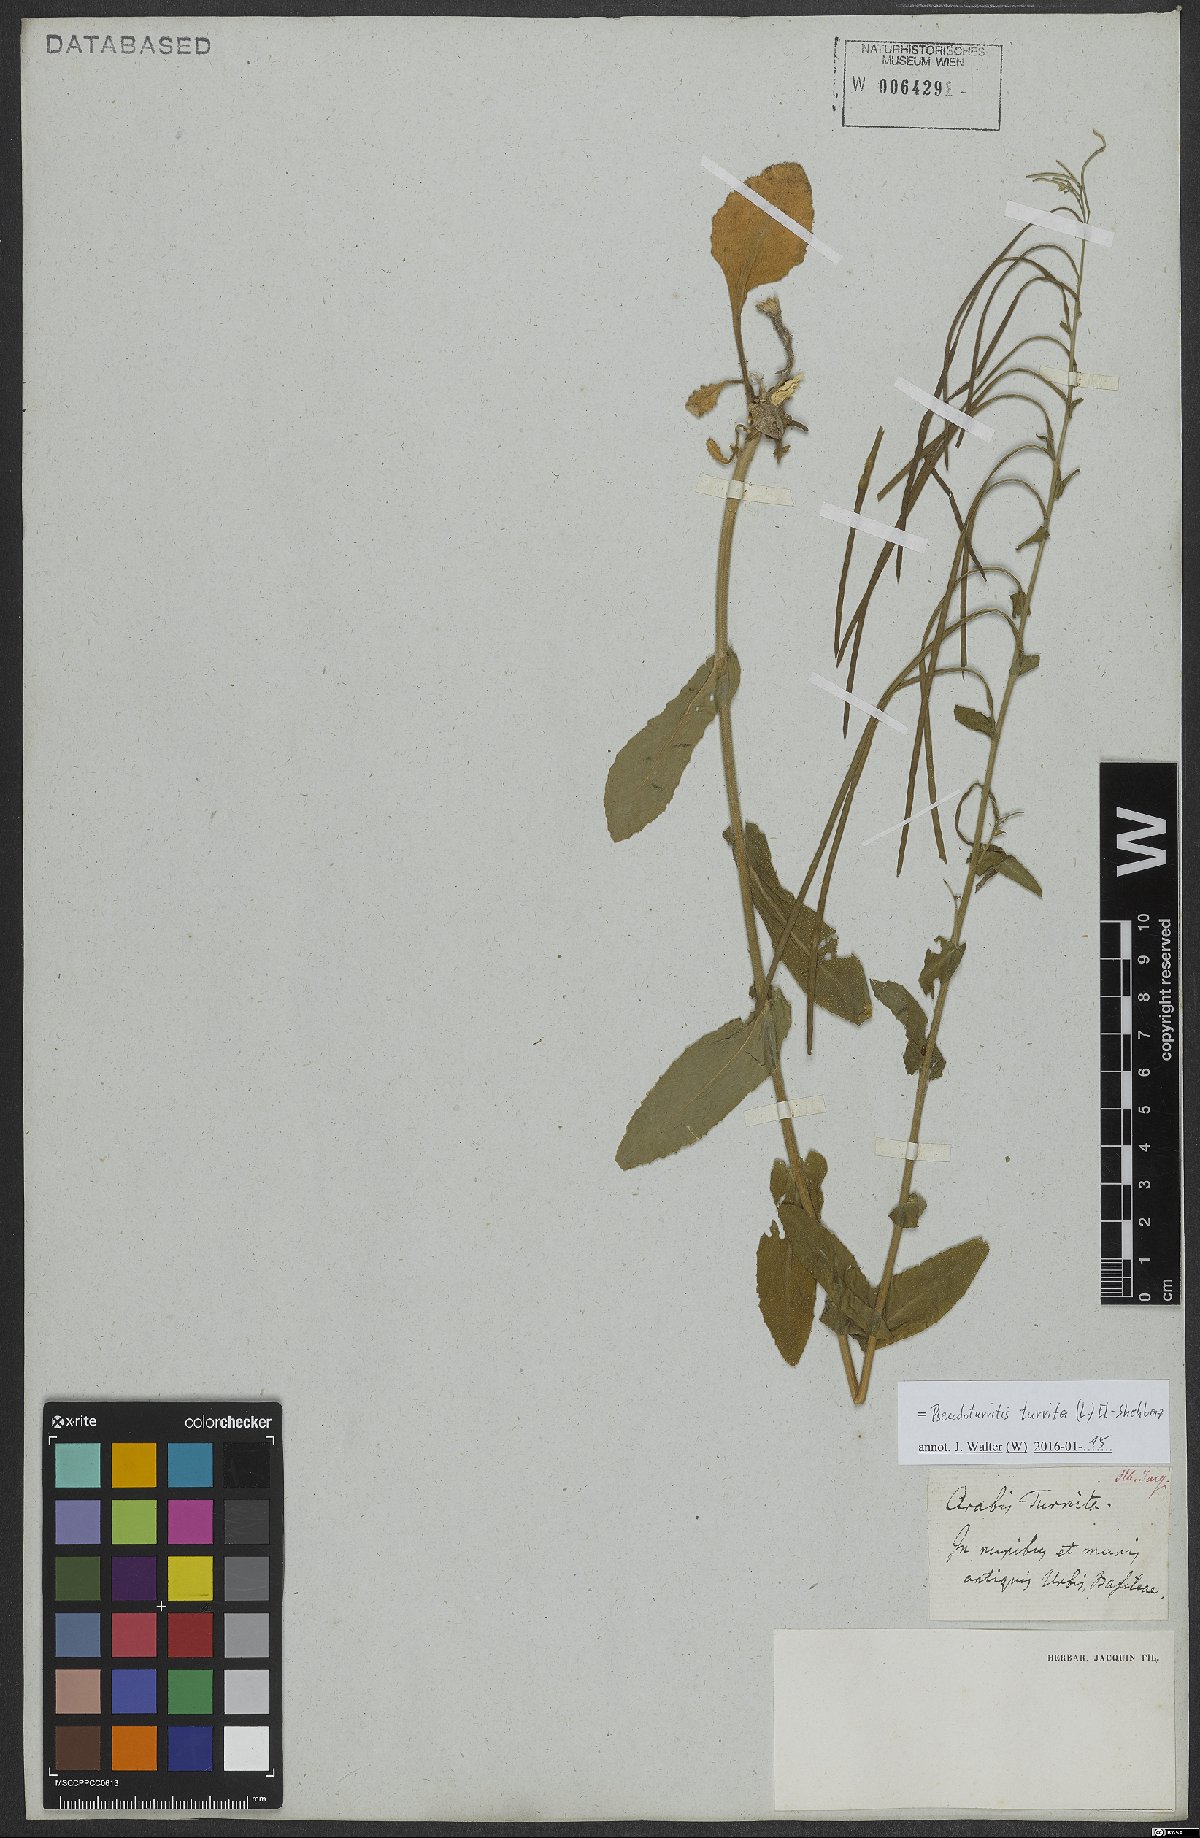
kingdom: Plantae
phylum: Tracheophyta
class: Magnoliopsida
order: Brassicales
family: Brassicaceae
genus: Pseudoturritis
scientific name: Pseudoturritis turrita
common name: Tower cress
